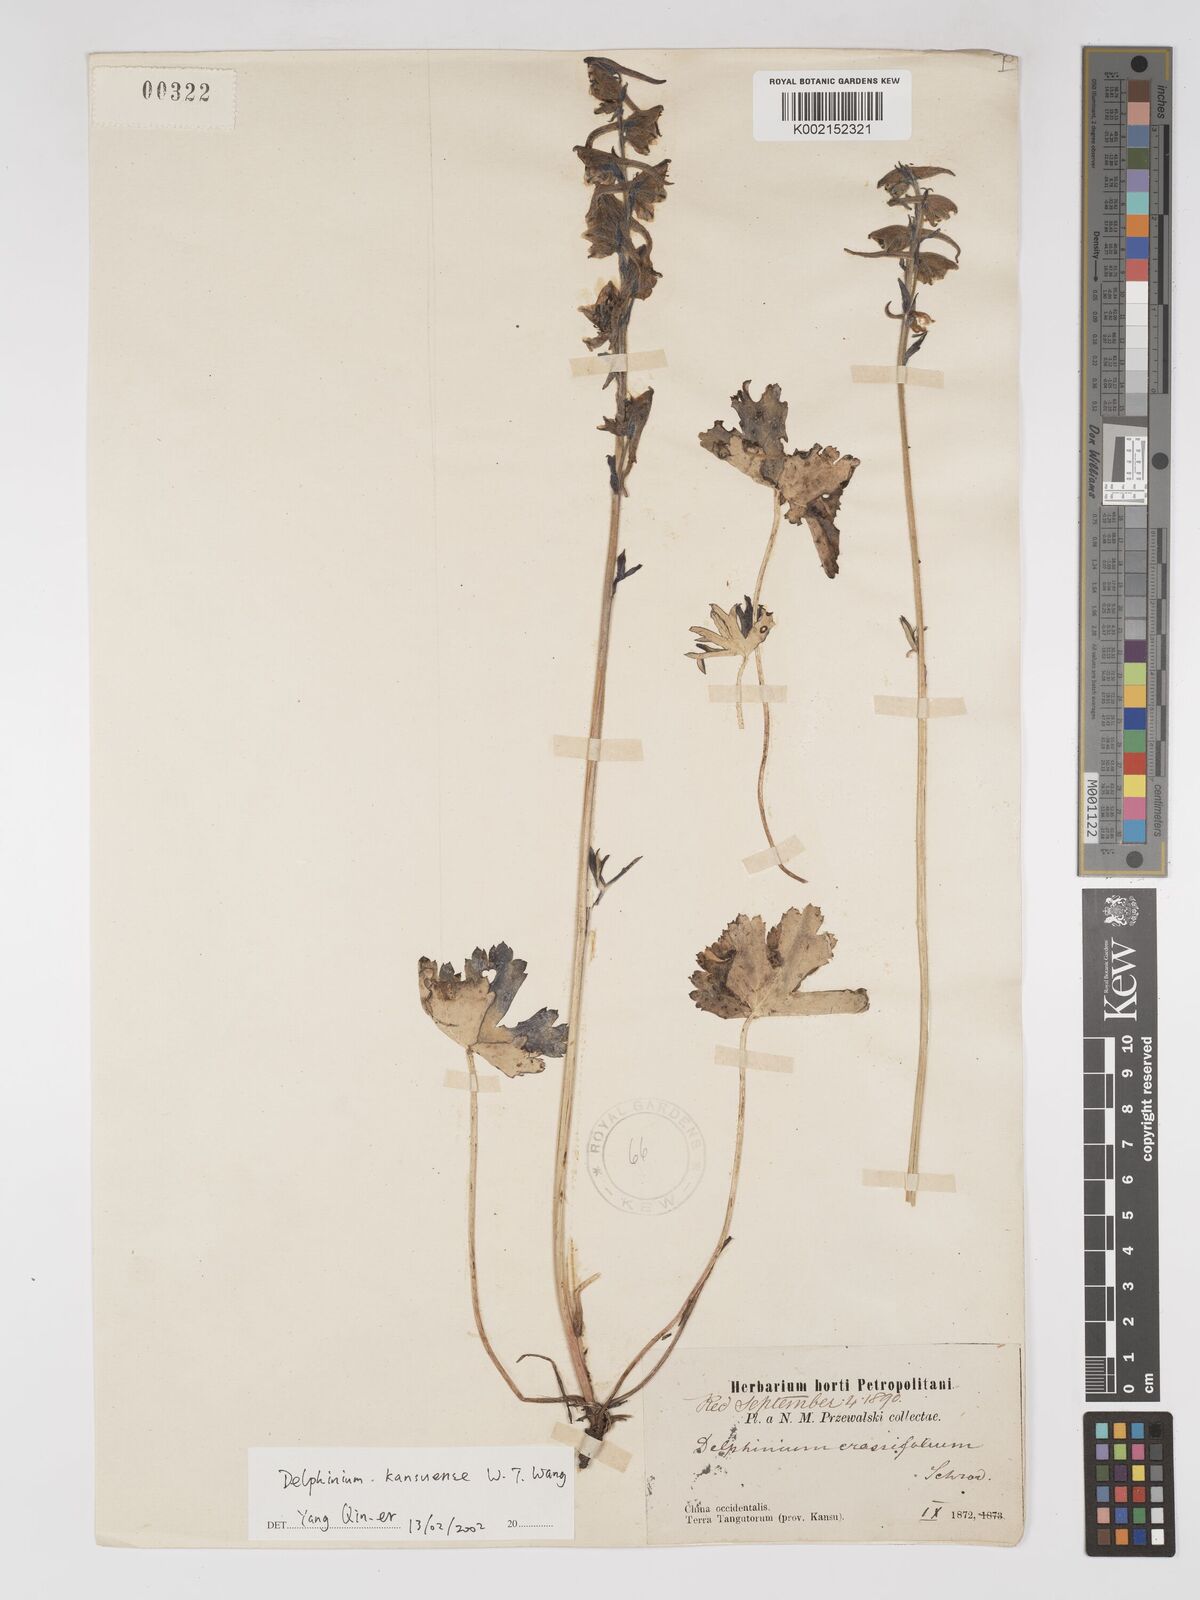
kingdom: Plantae
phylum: Tracheophyta
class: Magnoliopsida
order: Ranunculales
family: Ranunculaceae
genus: Delphinium
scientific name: Delphinium kantzeense
